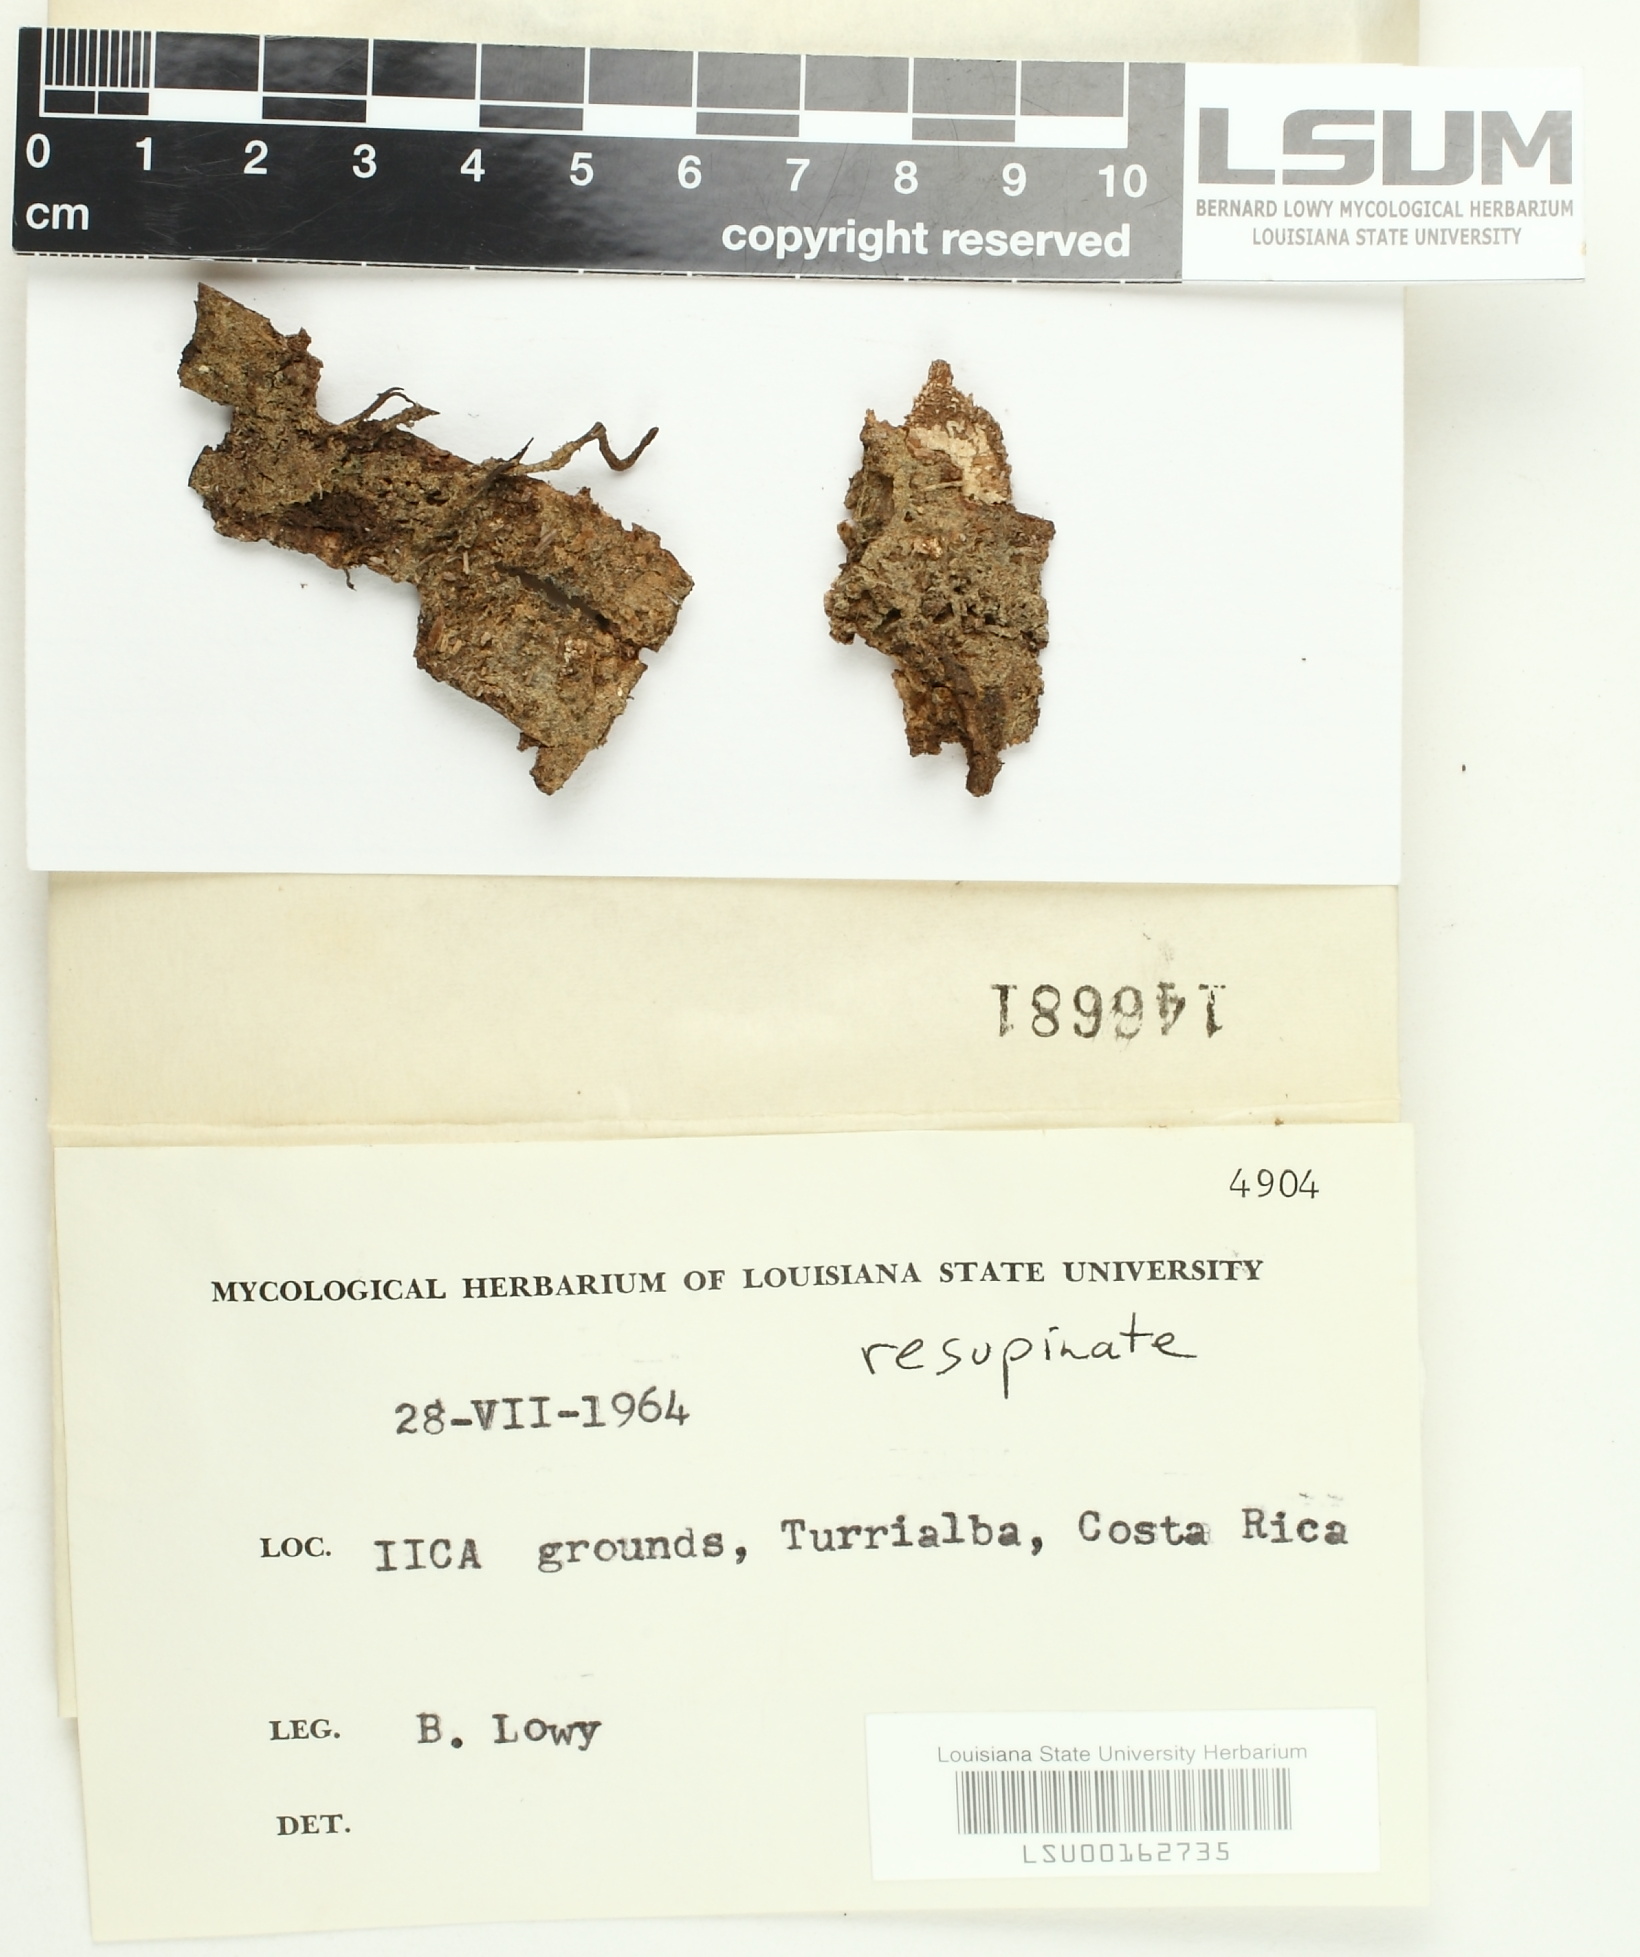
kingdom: Fungi
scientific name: Fungi
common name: Fungi
